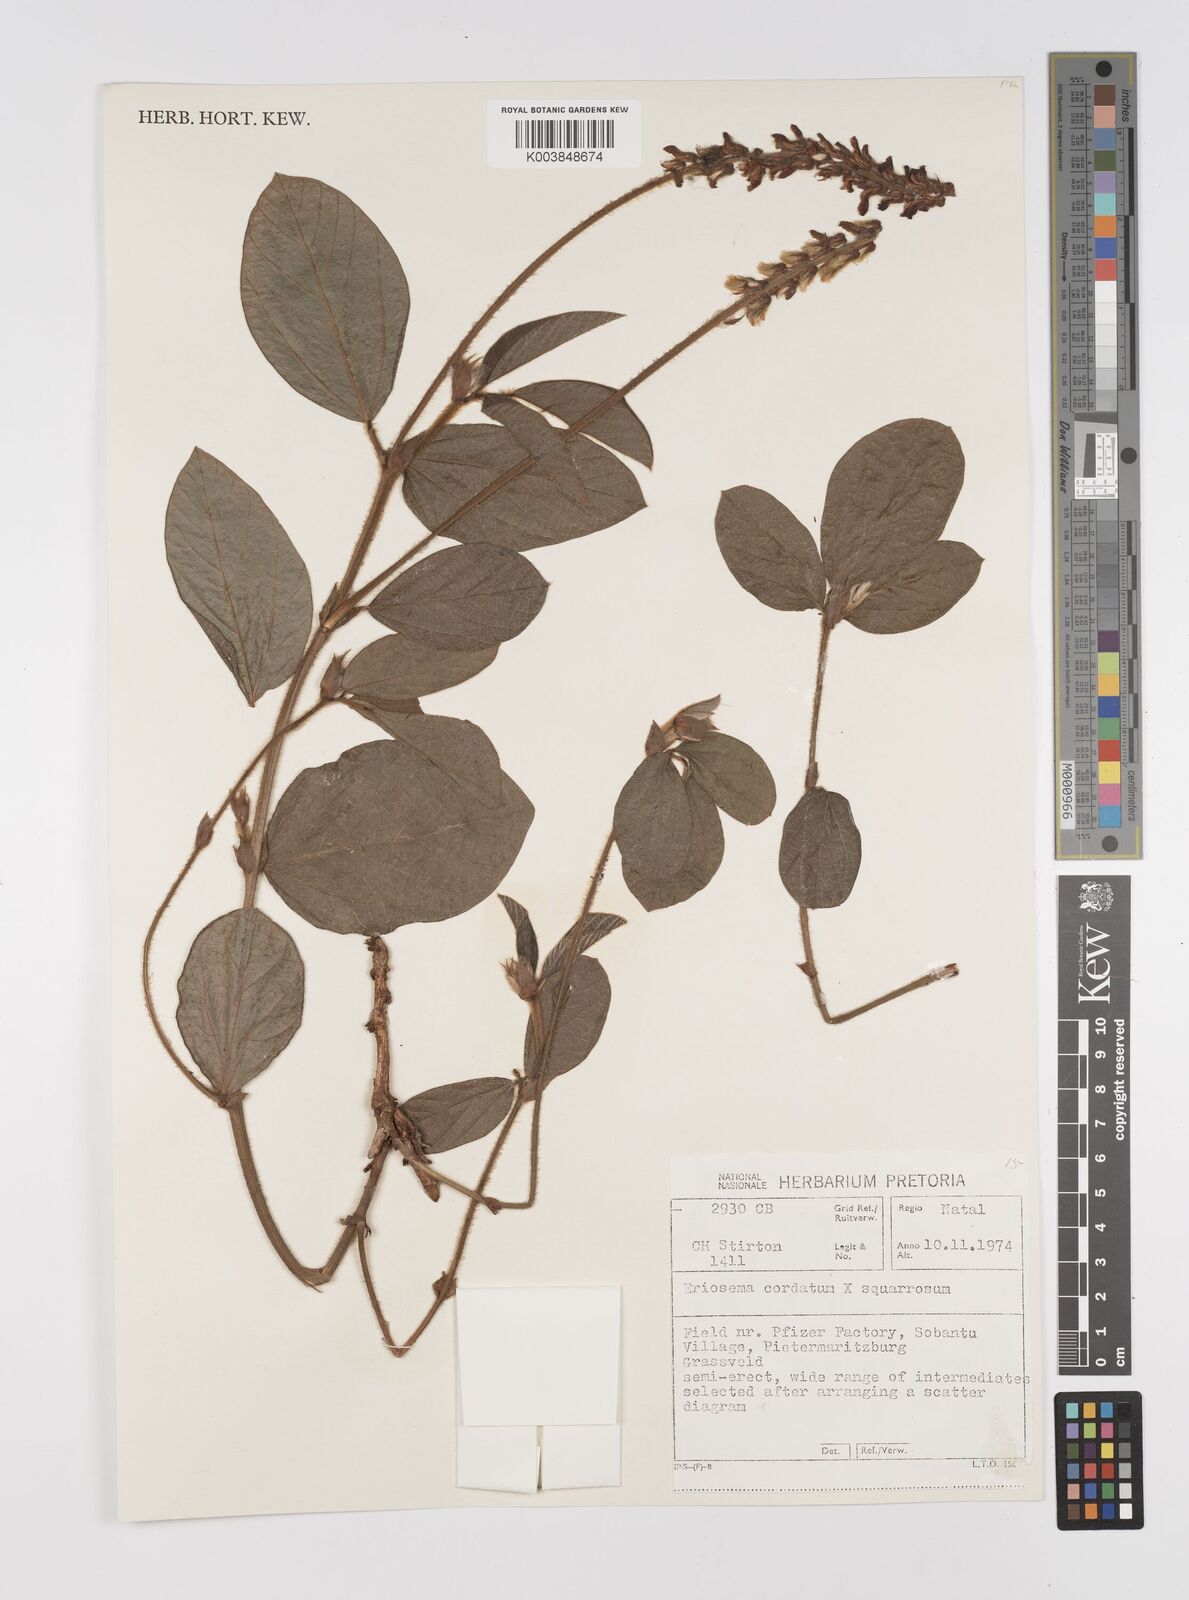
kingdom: Plantae
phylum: Tracheophyta
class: Magnoliopsida
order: Fabales
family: Fabaceae
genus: Eriosema
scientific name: Eriosema squarrosum
